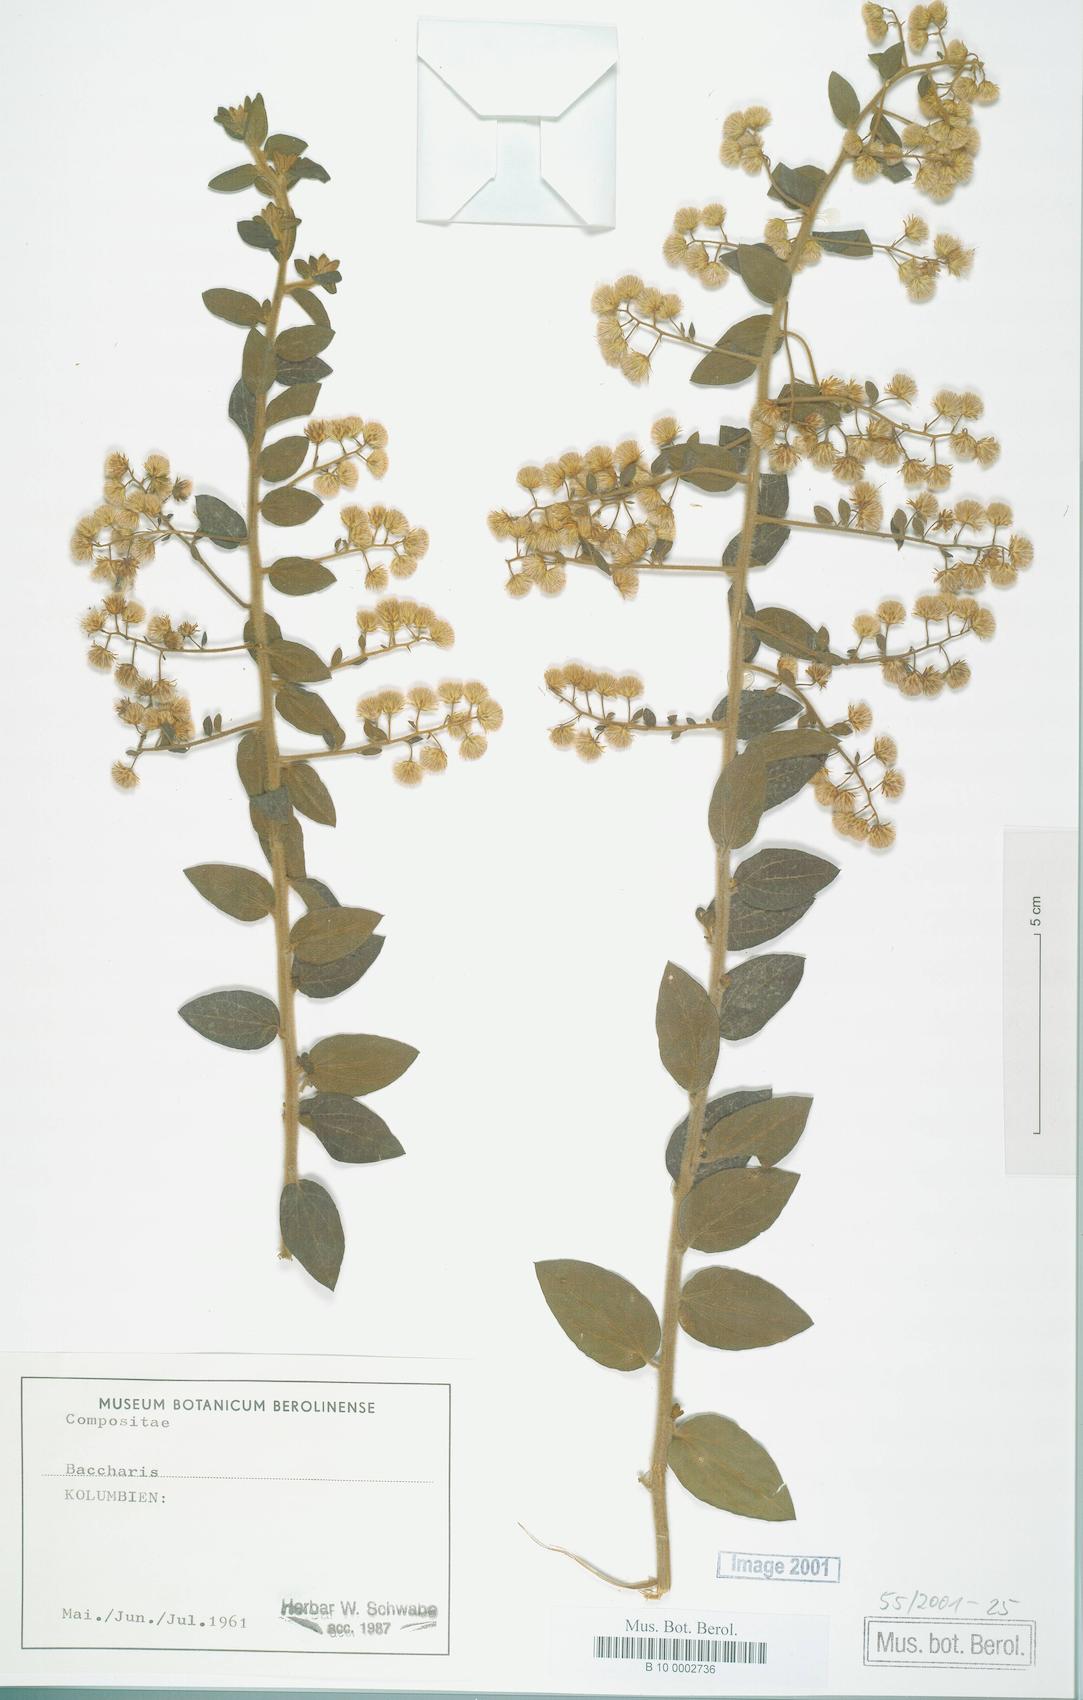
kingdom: Plantae
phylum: Tracheophyta
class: Magnoliopsida
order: Asterales
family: Asteraceae
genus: Baccharis
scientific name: Baccharis
